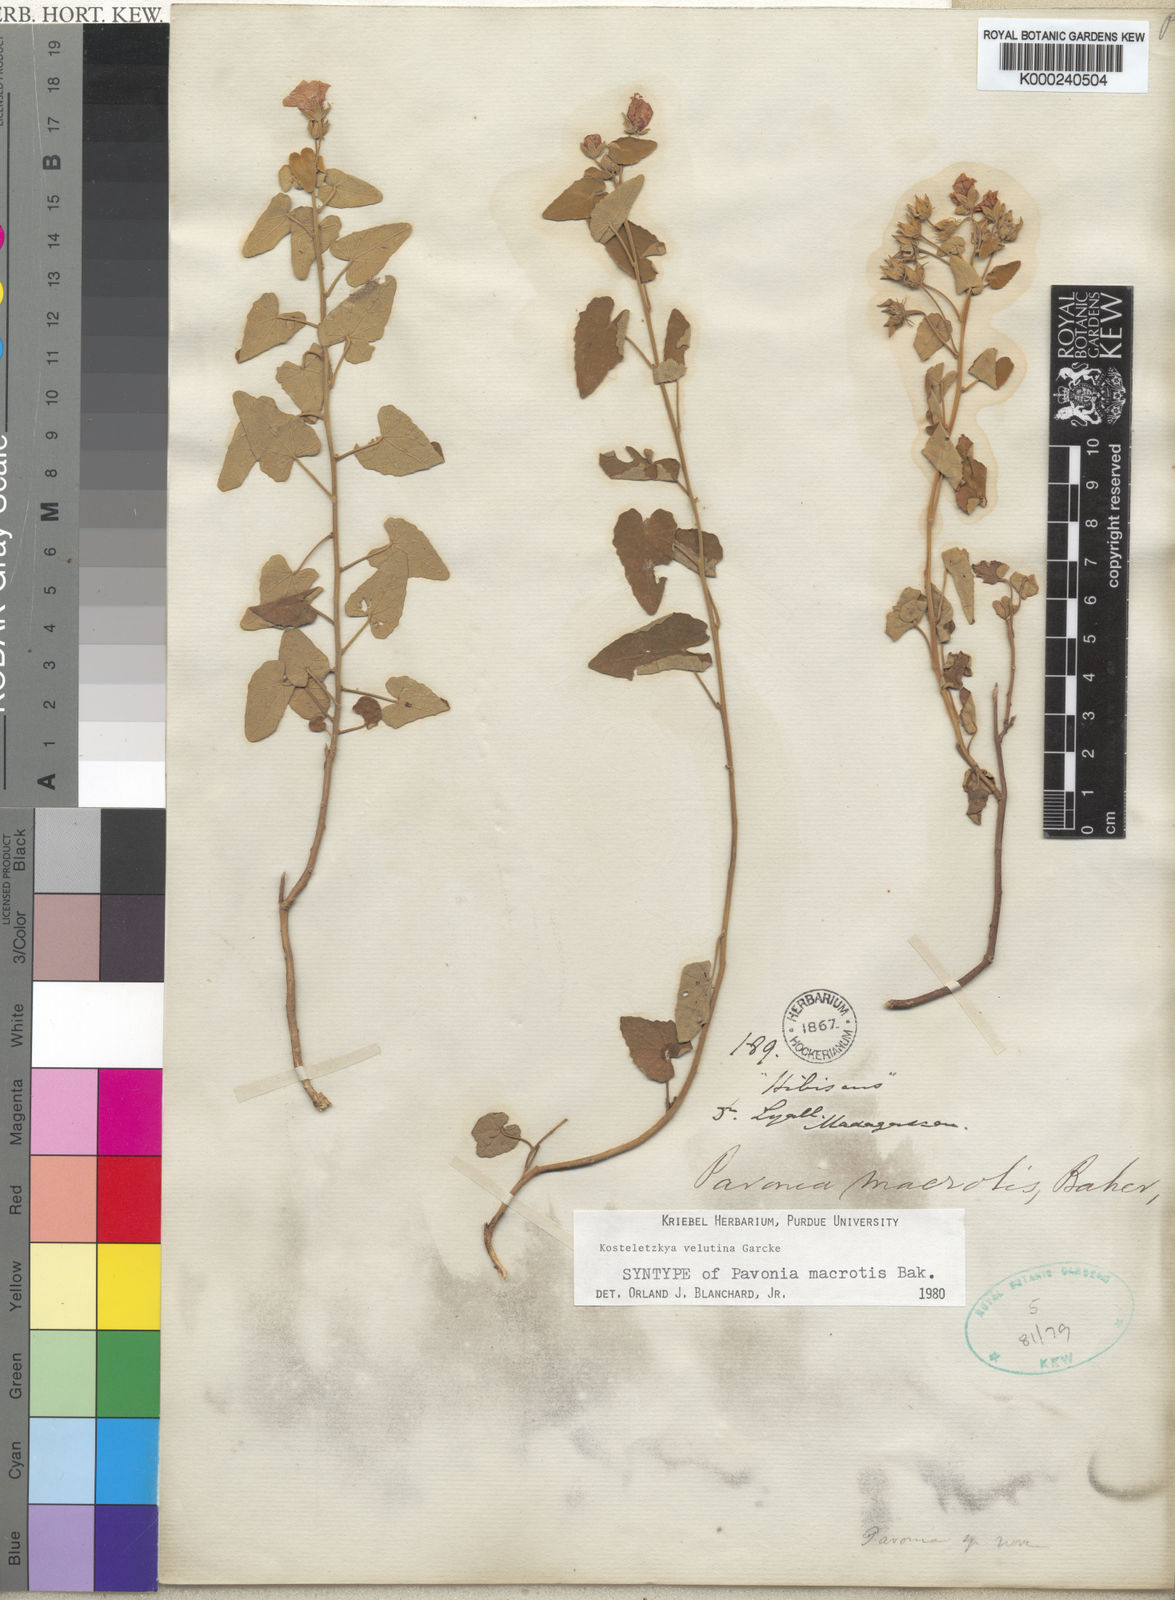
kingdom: Plantae
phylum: Tracheophyta
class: Magnoliopsida
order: Malvales
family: Malvaceae
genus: Perrierophytum
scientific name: Perrierophytum velutinum
